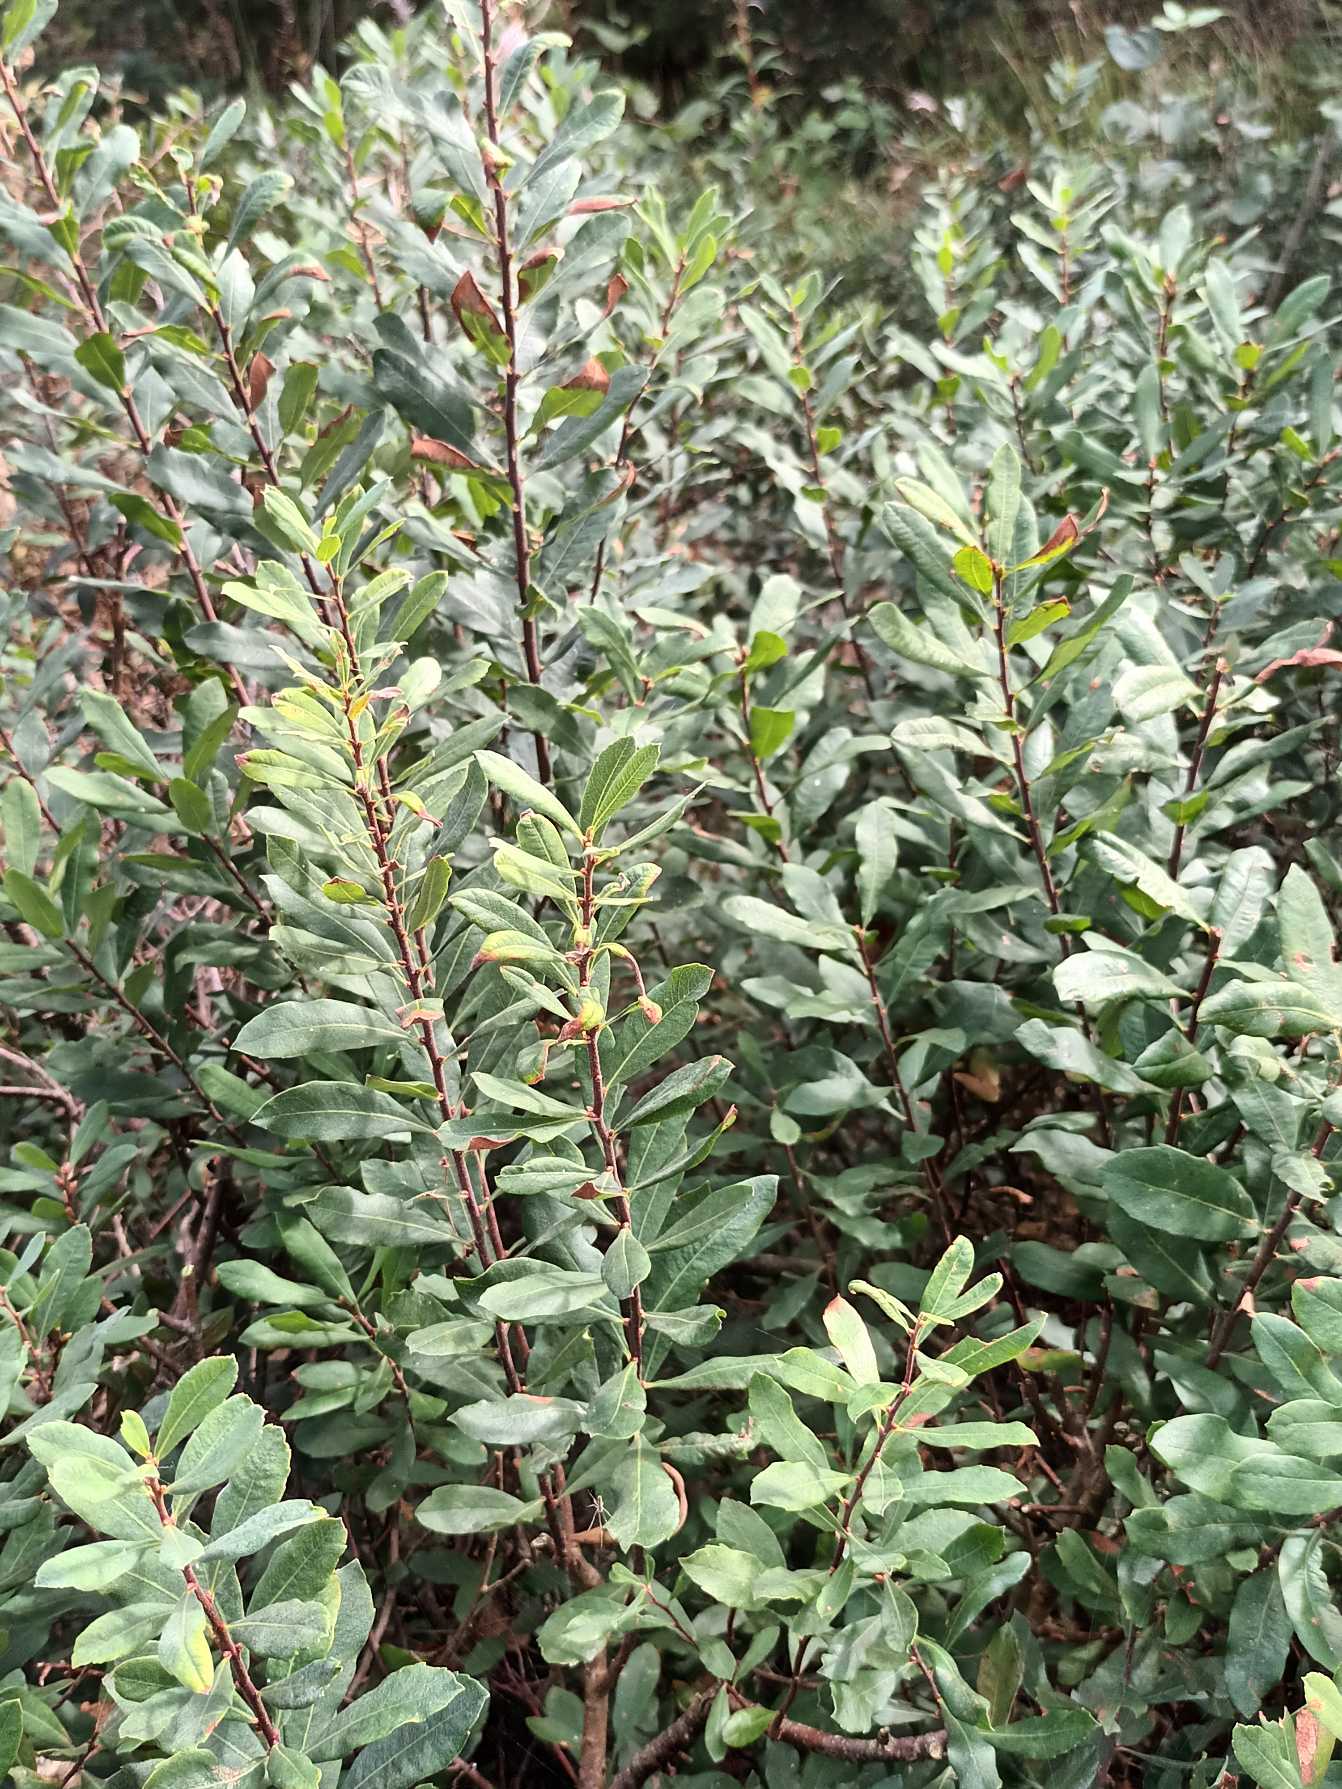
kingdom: Plantae
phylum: Tracheophyta
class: Magnoliopsida
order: Fagales
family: Myricaceae
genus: Myrica
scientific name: Myrica gale
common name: Pors
